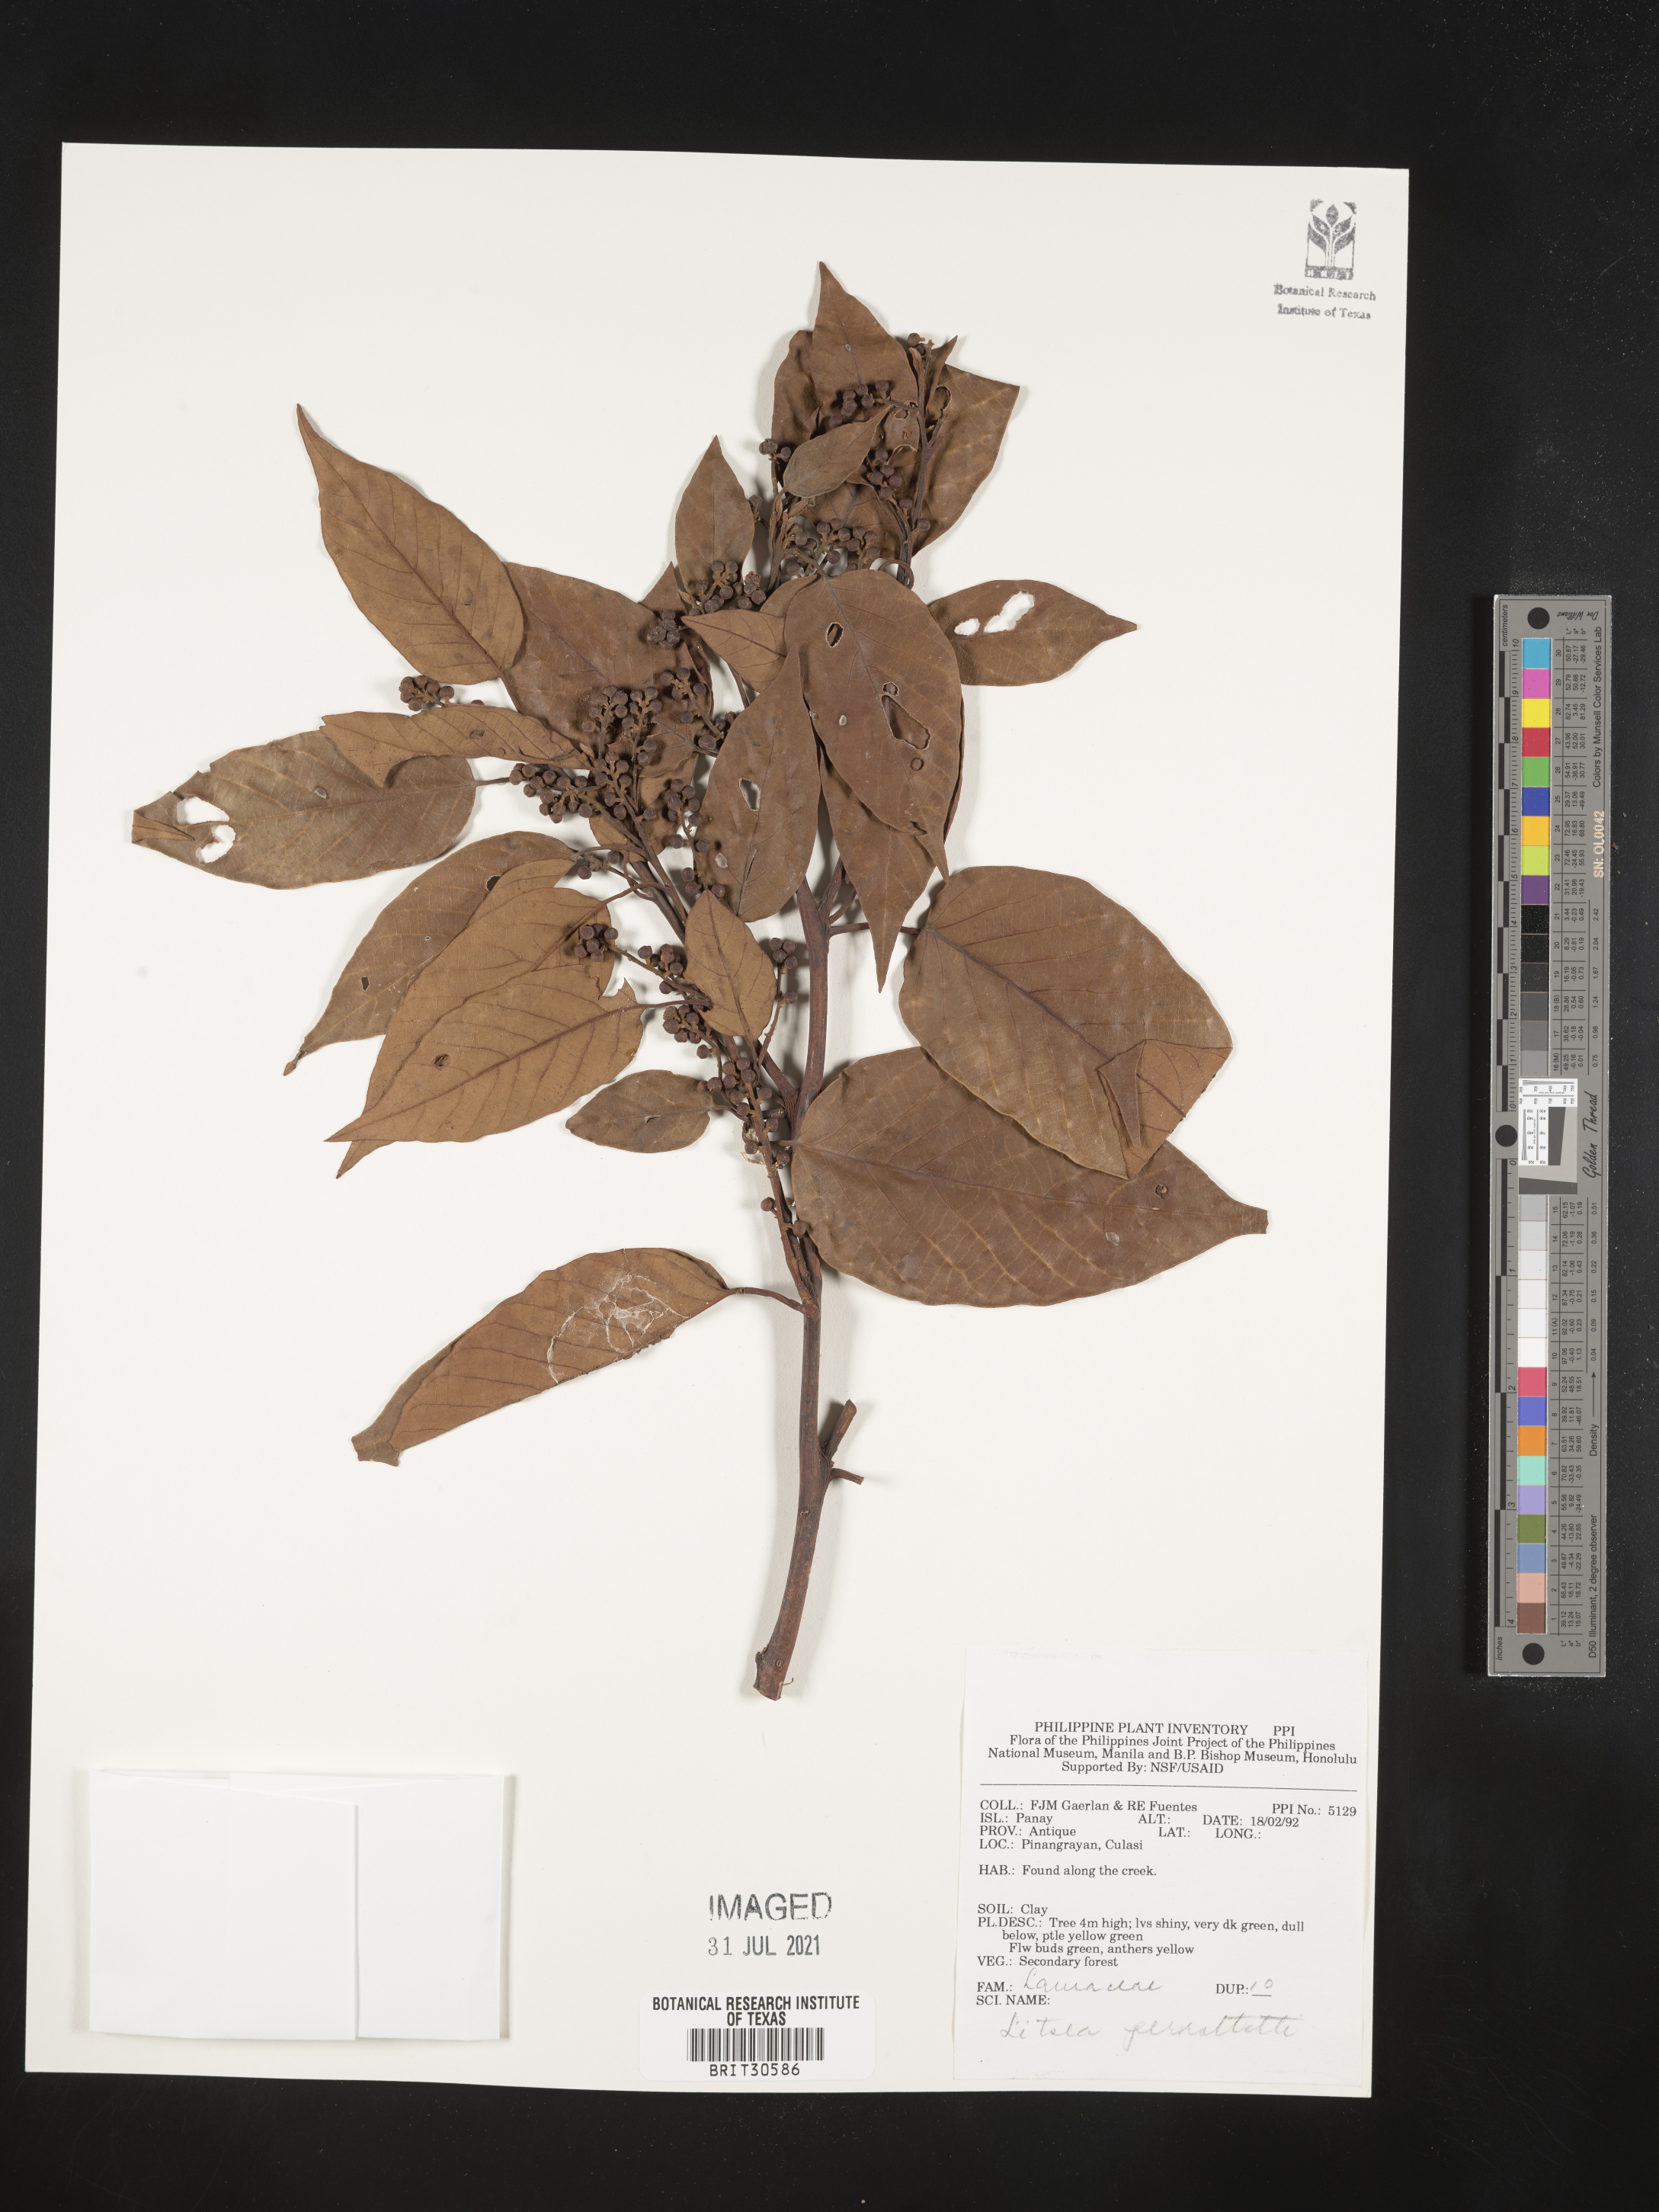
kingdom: Plantae
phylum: Tracheophyta
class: Magnoliopsida
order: Laurales
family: Lauraceae
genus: Litsea
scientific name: Litsea cordata
